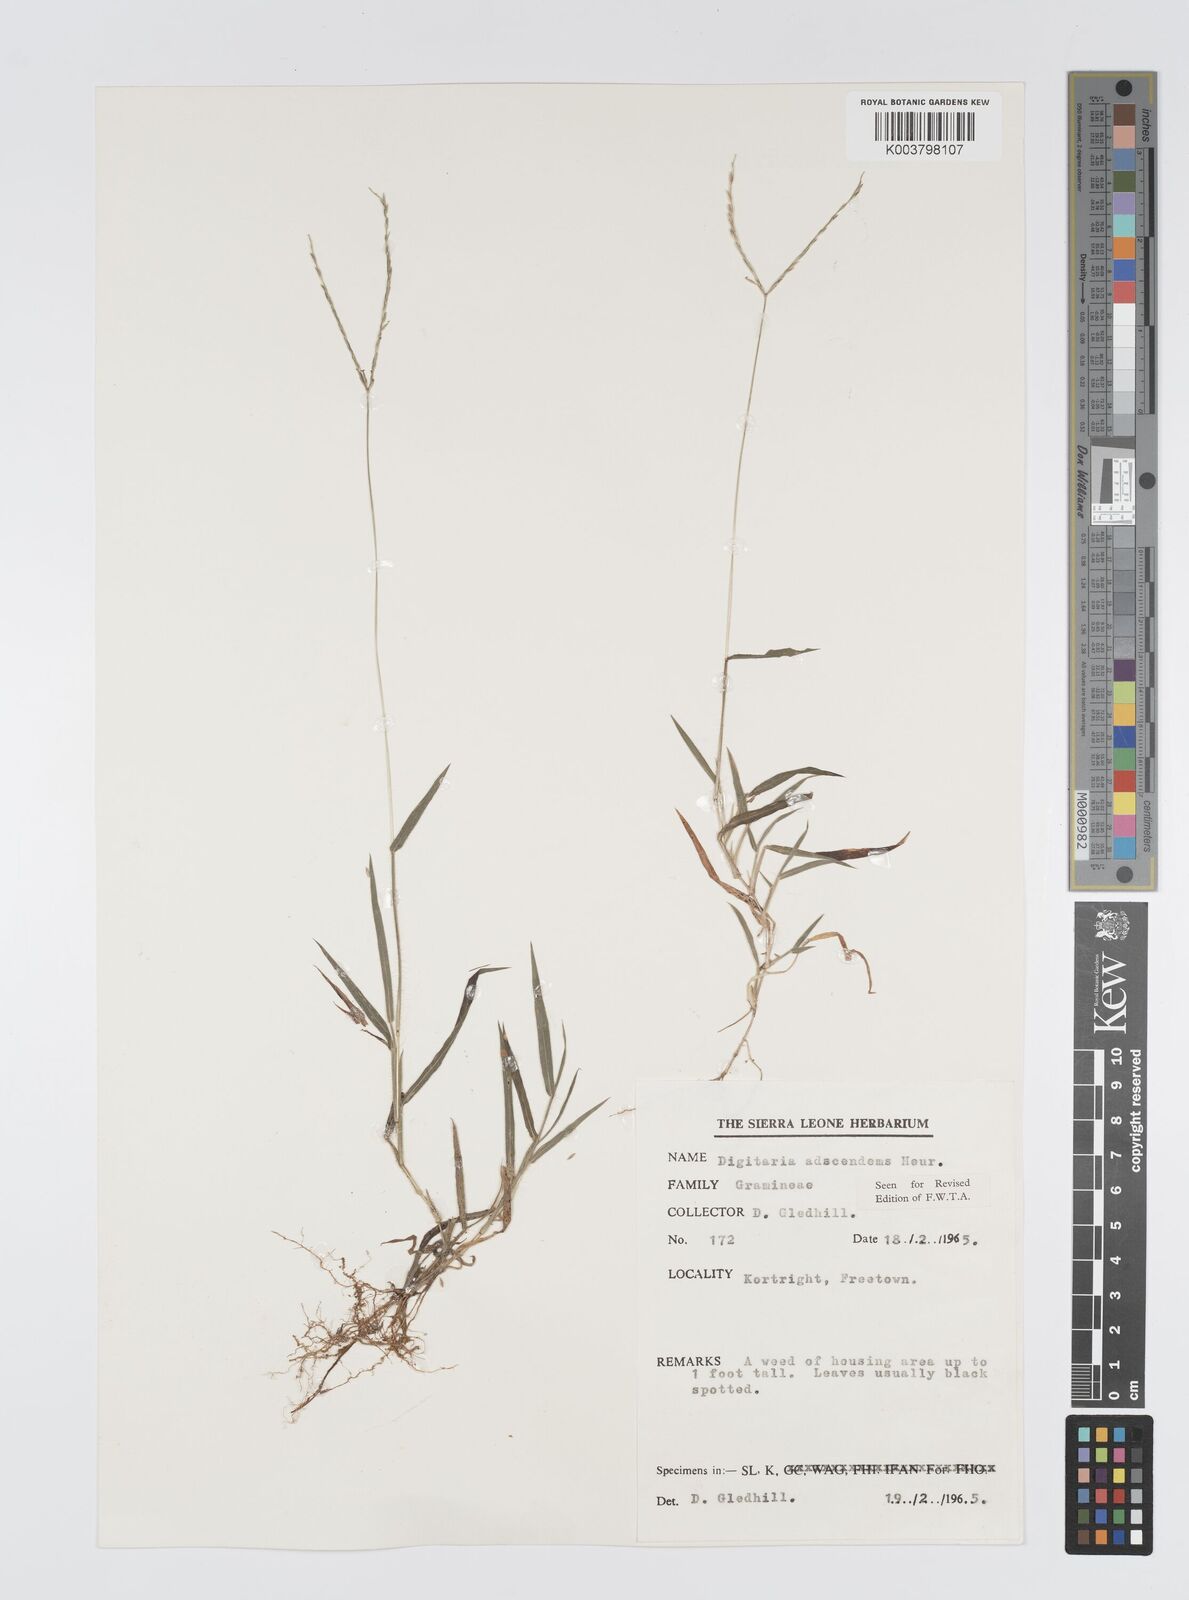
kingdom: Plantae
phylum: Tracheophyta
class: Liliopsida
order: Poales
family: Poaceae
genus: Digitaria
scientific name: Digitaria
